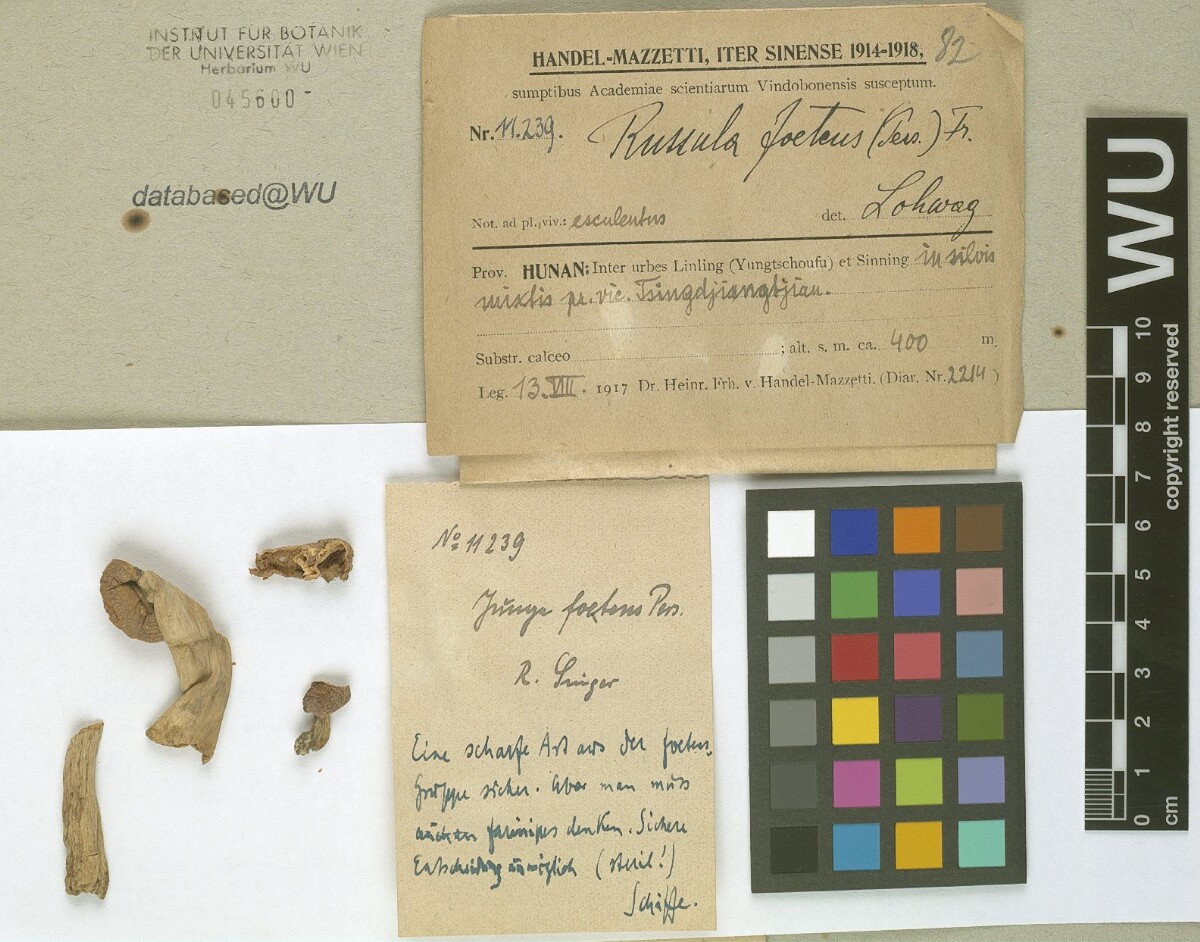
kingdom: Fungi
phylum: Basidiomycota
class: Agaricomycetes
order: Russulales
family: Russulaceae
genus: Russula
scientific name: Russula foetens
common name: Foetid russula
